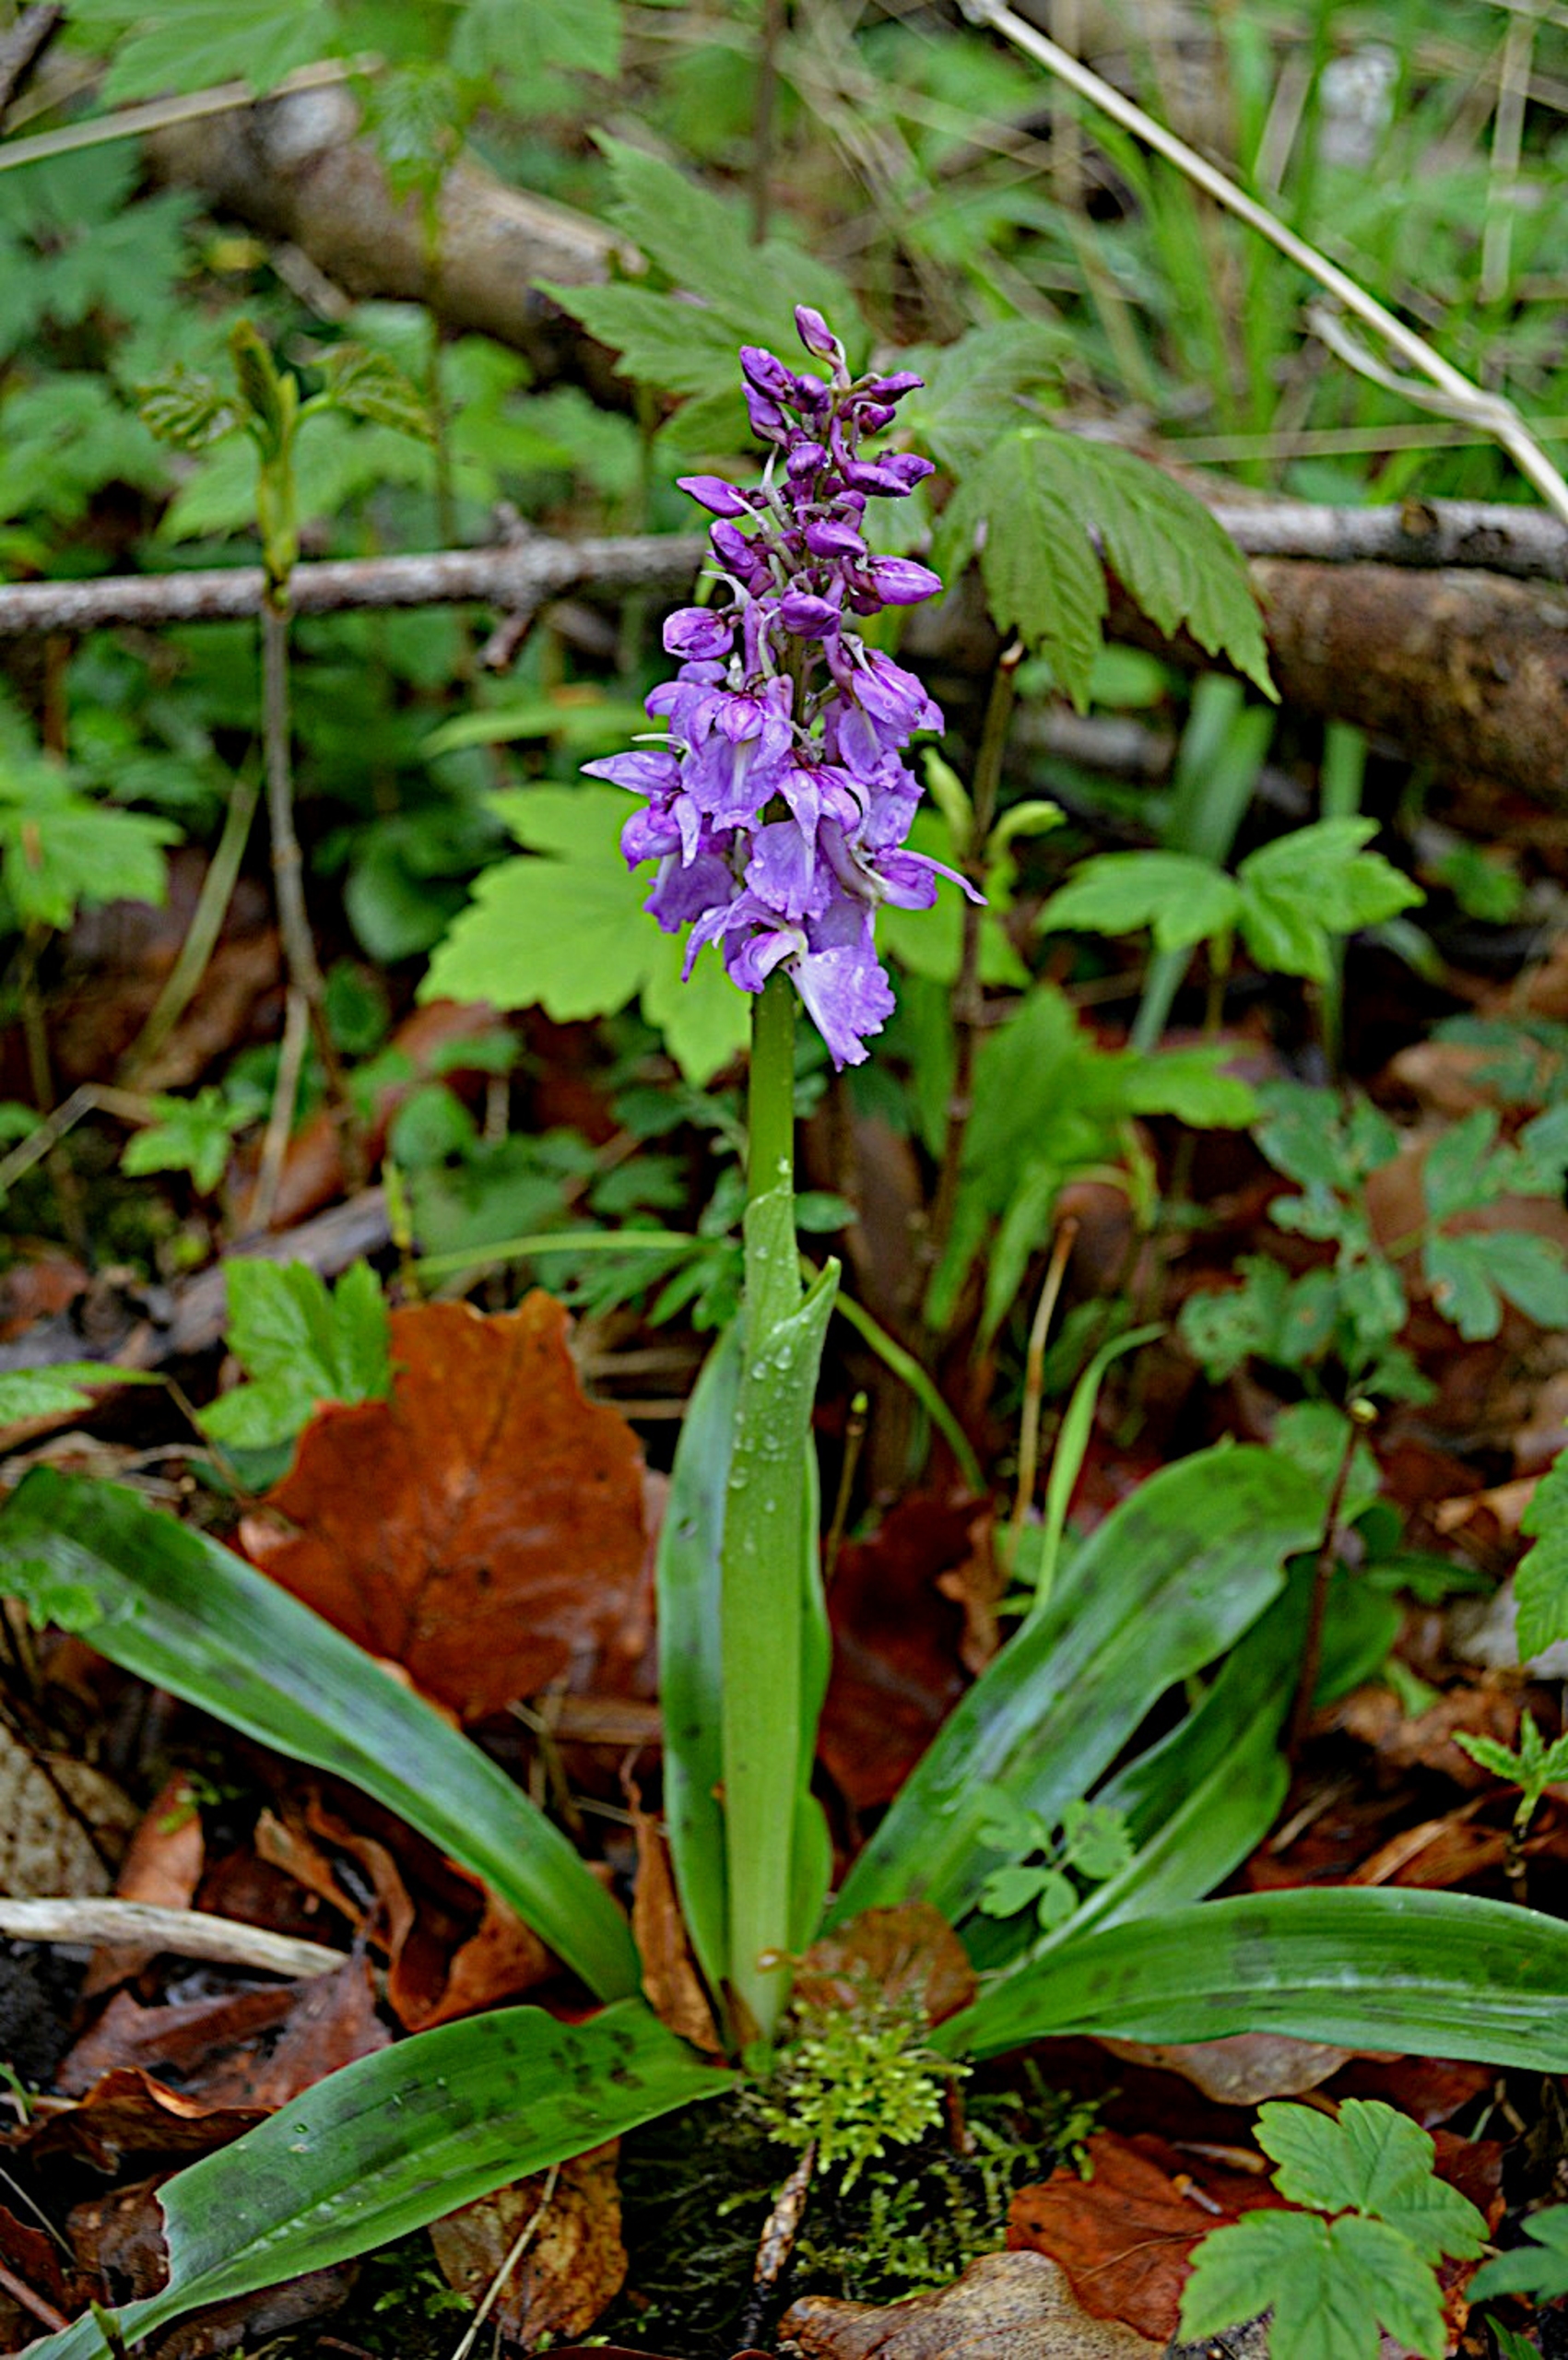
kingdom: Plantae
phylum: Tracheophyta
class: Liliopsida
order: Asparagales
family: Orchidaceae
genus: Orchis
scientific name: Orchis mascula
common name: Tyndakset gøgeurt
